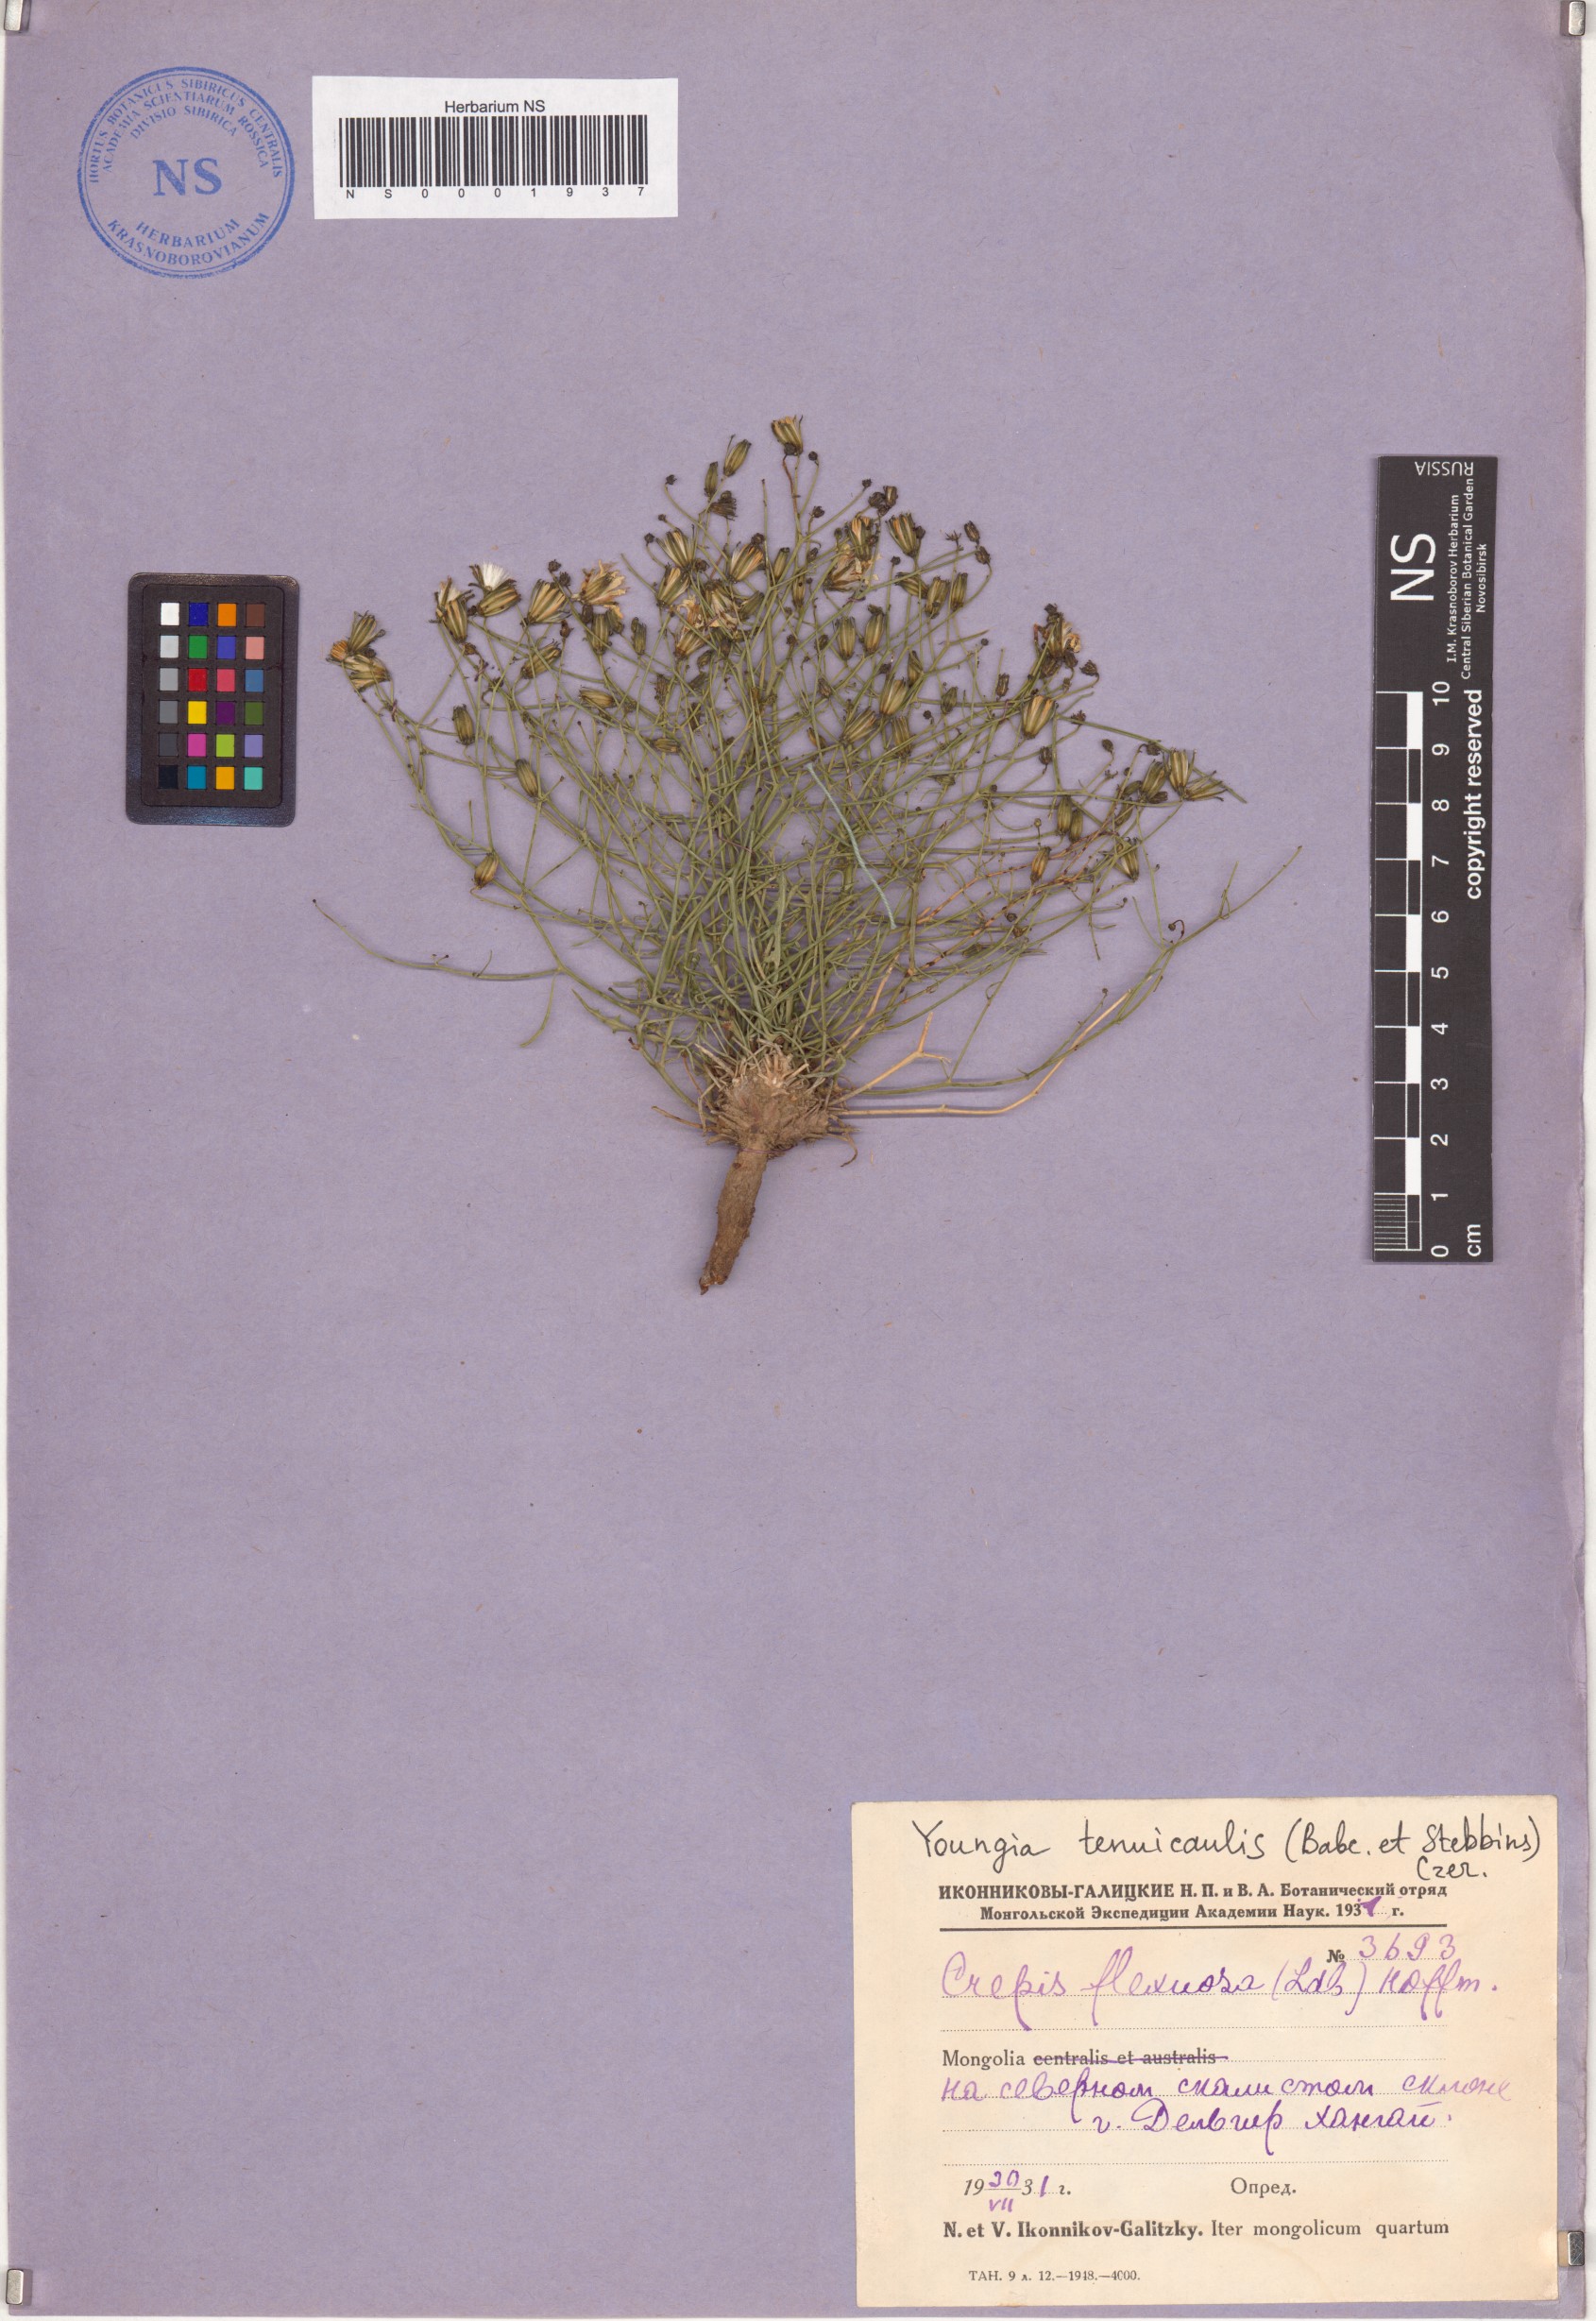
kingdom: Plantae
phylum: Tracheophyta
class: Magnoliopsida
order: Asterales
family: Asteraceae
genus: Crepidiastrum
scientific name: Crepidiastrum akagii
